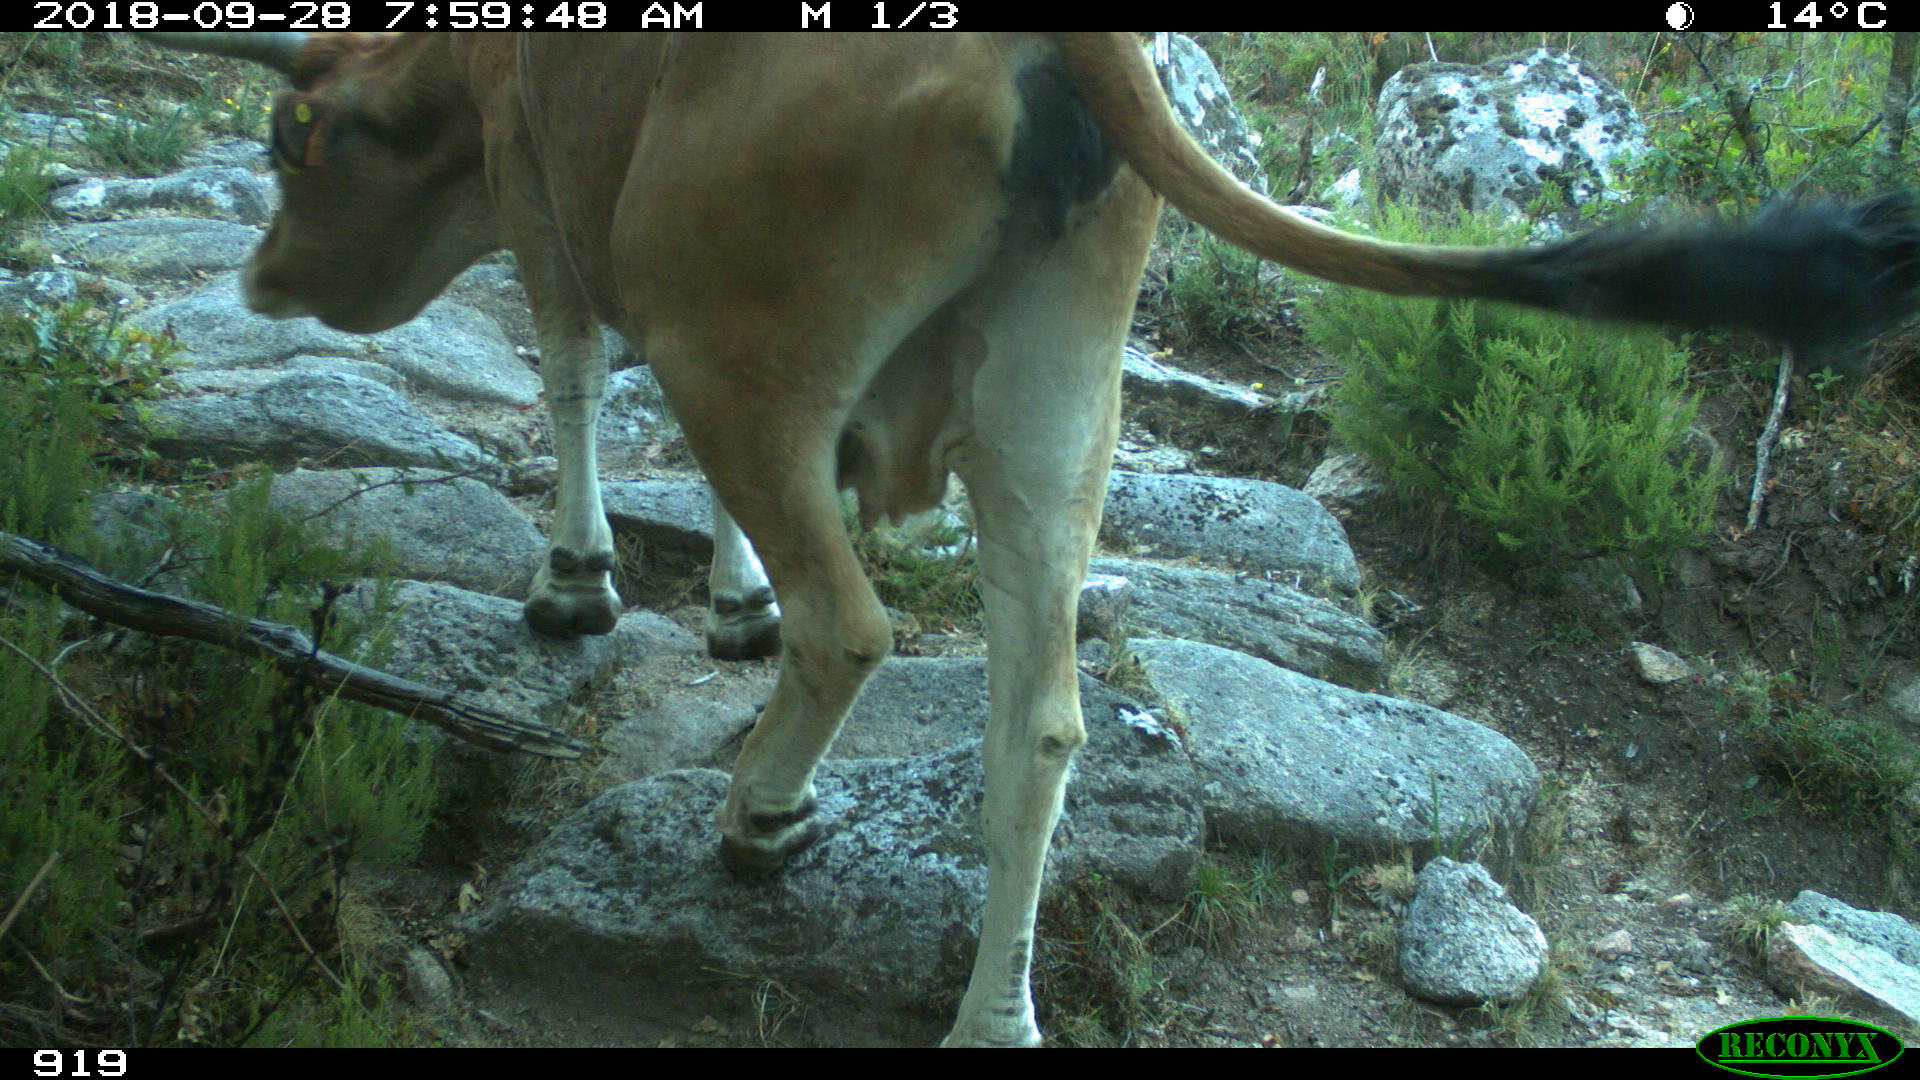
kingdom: Animalia
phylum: Chordata
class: Mammalia
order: Artiodactyla
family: Bovidae
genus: Bos
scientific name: Bos taurus
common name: Domesticated cattle
